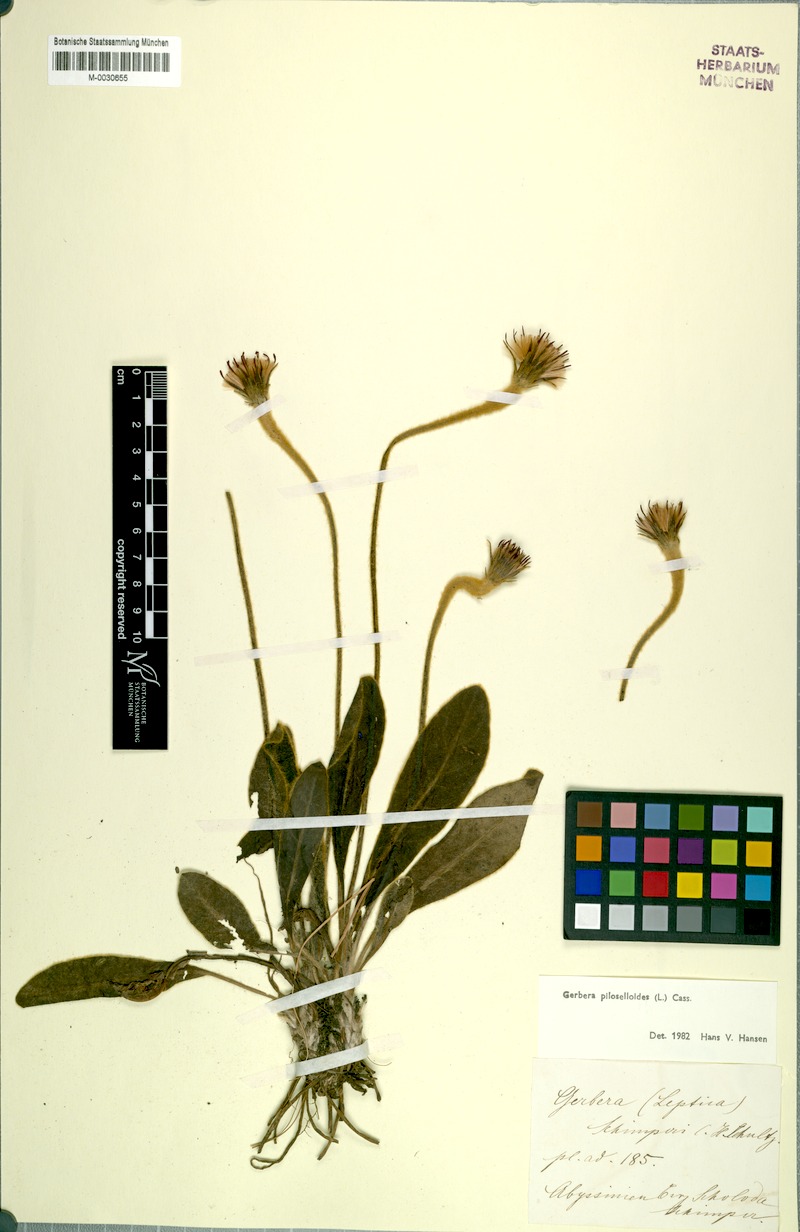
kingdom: Plantae
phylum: Tracheophyta
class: Magnoliopsida
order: Asterales
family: Asteraceae
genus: Piloselloides
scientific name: Piloselloides hirsuta
